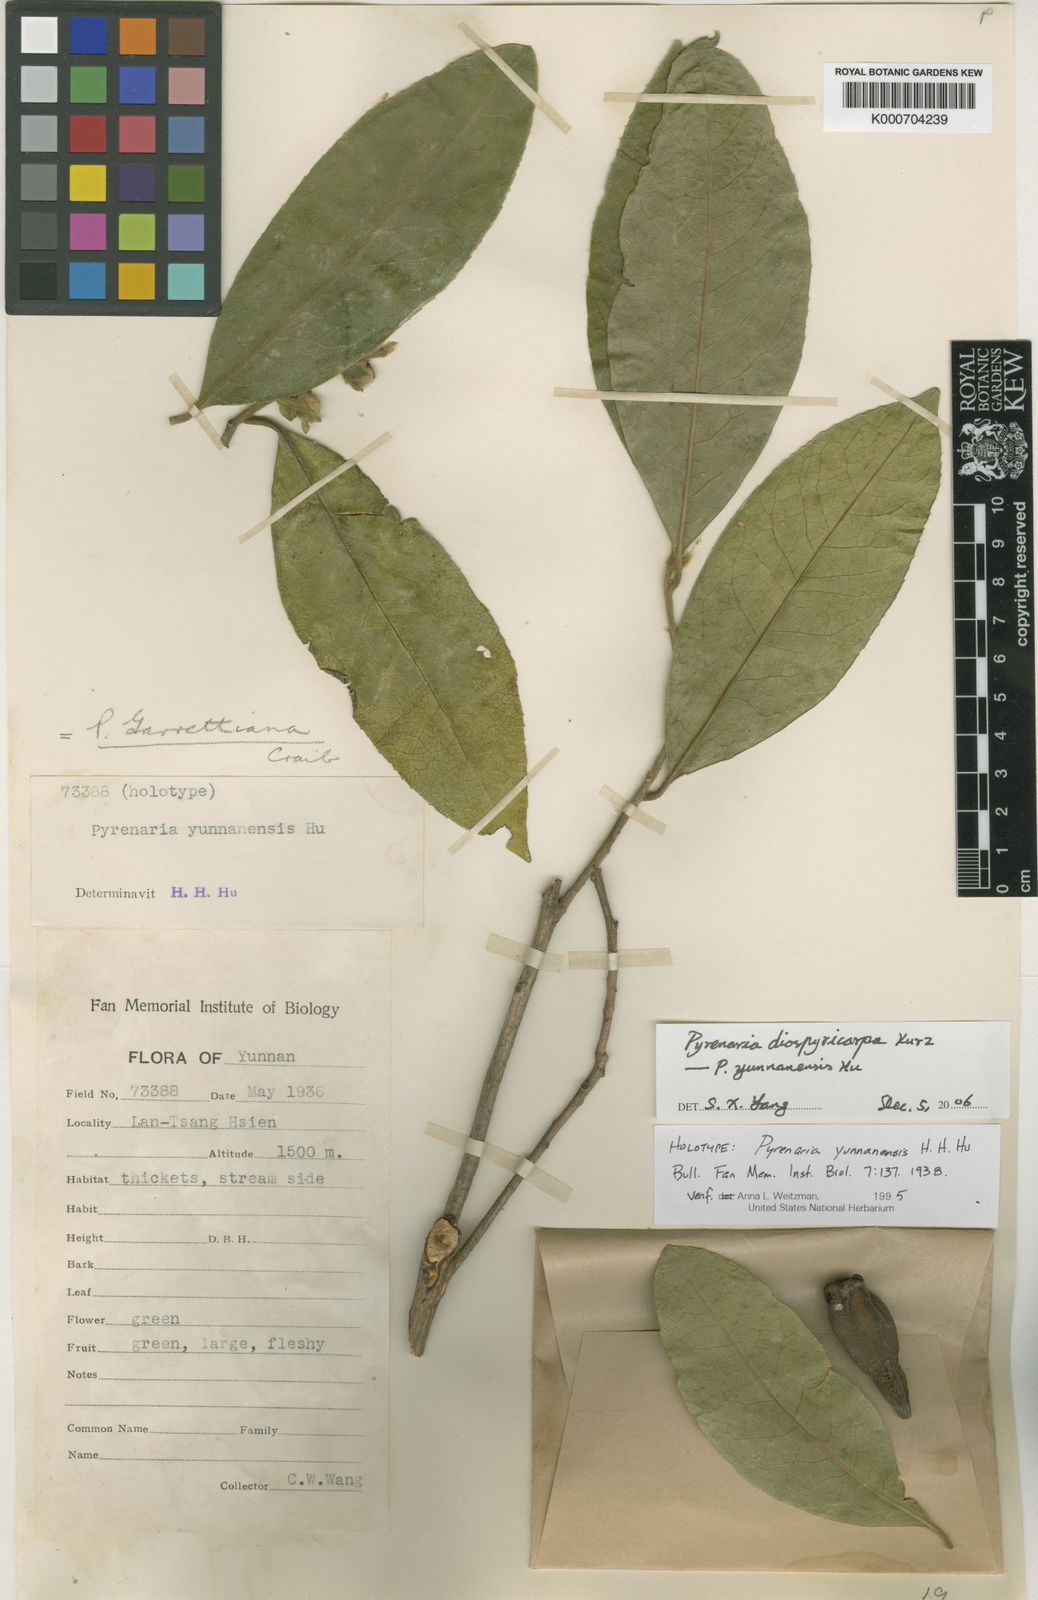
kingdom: Plantae
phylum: Tracheophyta
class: Magnoliopsida
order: Ericales
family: Theaceae
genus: Pyrenaria
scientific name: Pyrenaria diospyricarpa
